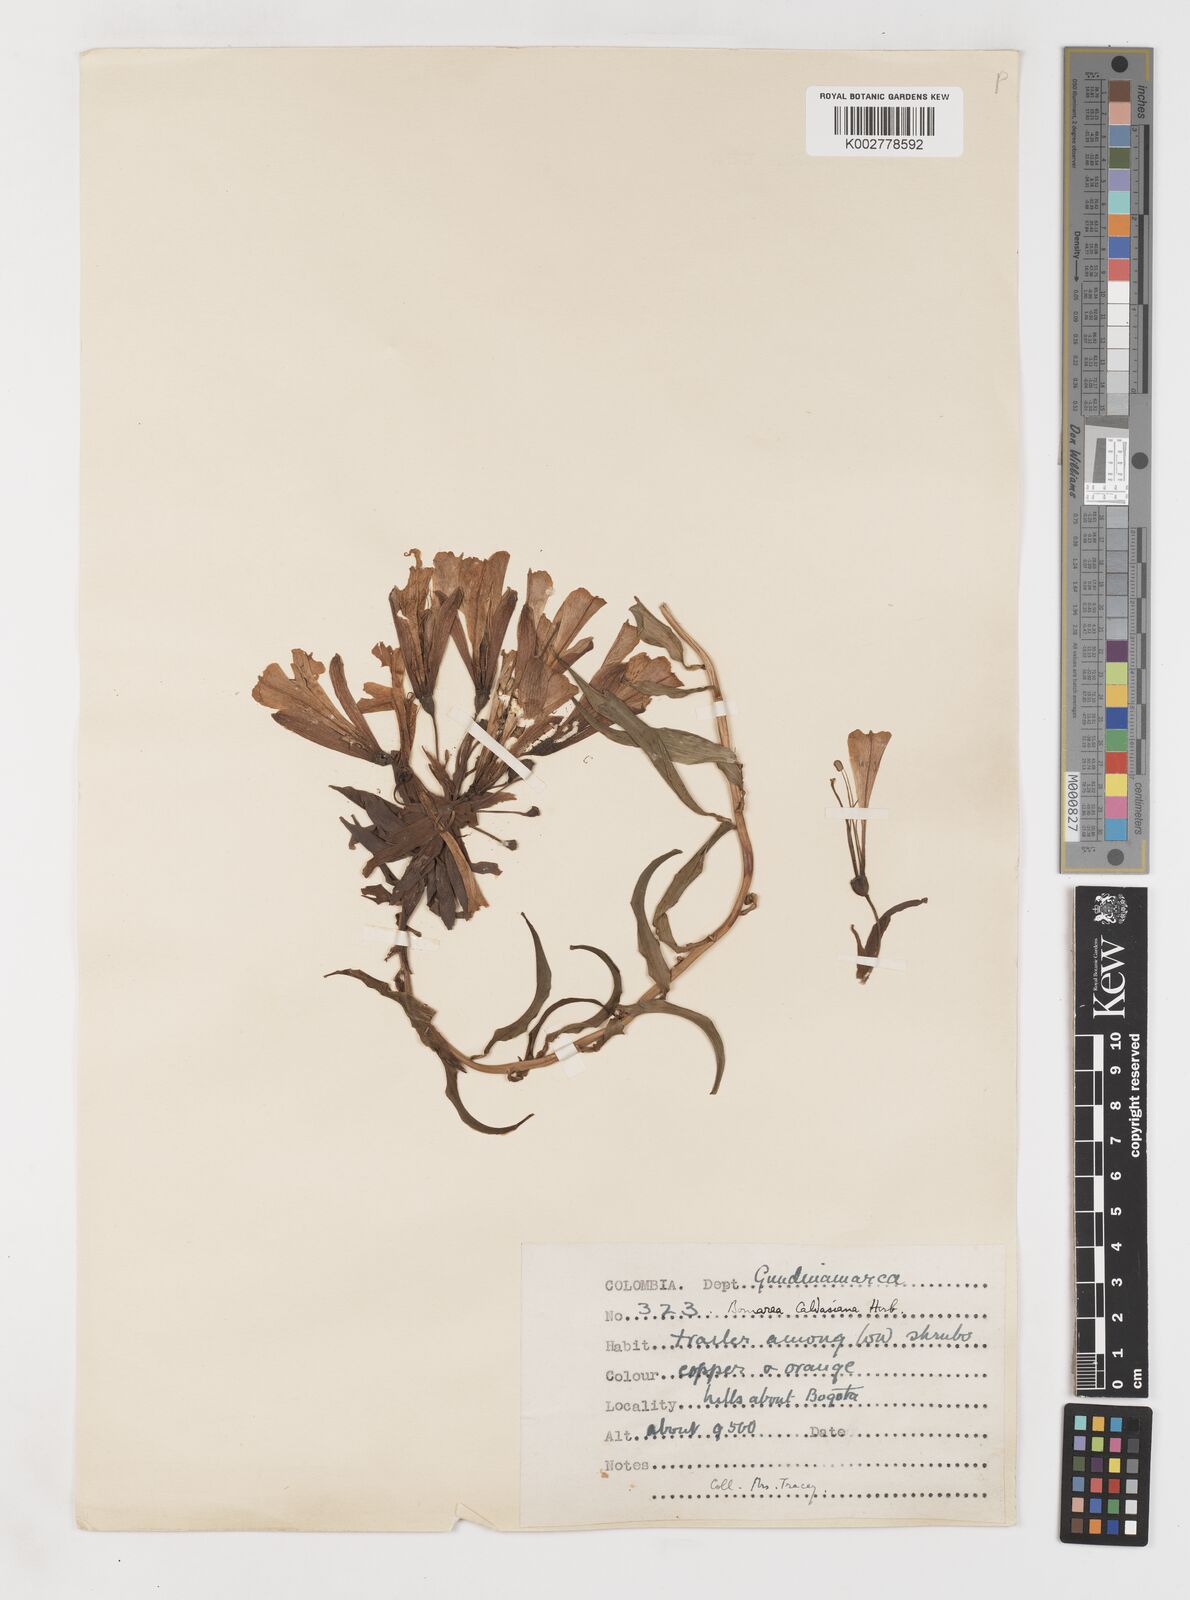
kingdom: Plantae
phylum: Tracheophyta
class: Liliopsida
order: Liliales
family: Alstroemeriaceae
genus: Bomarea
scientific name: Bomarea multiflora
